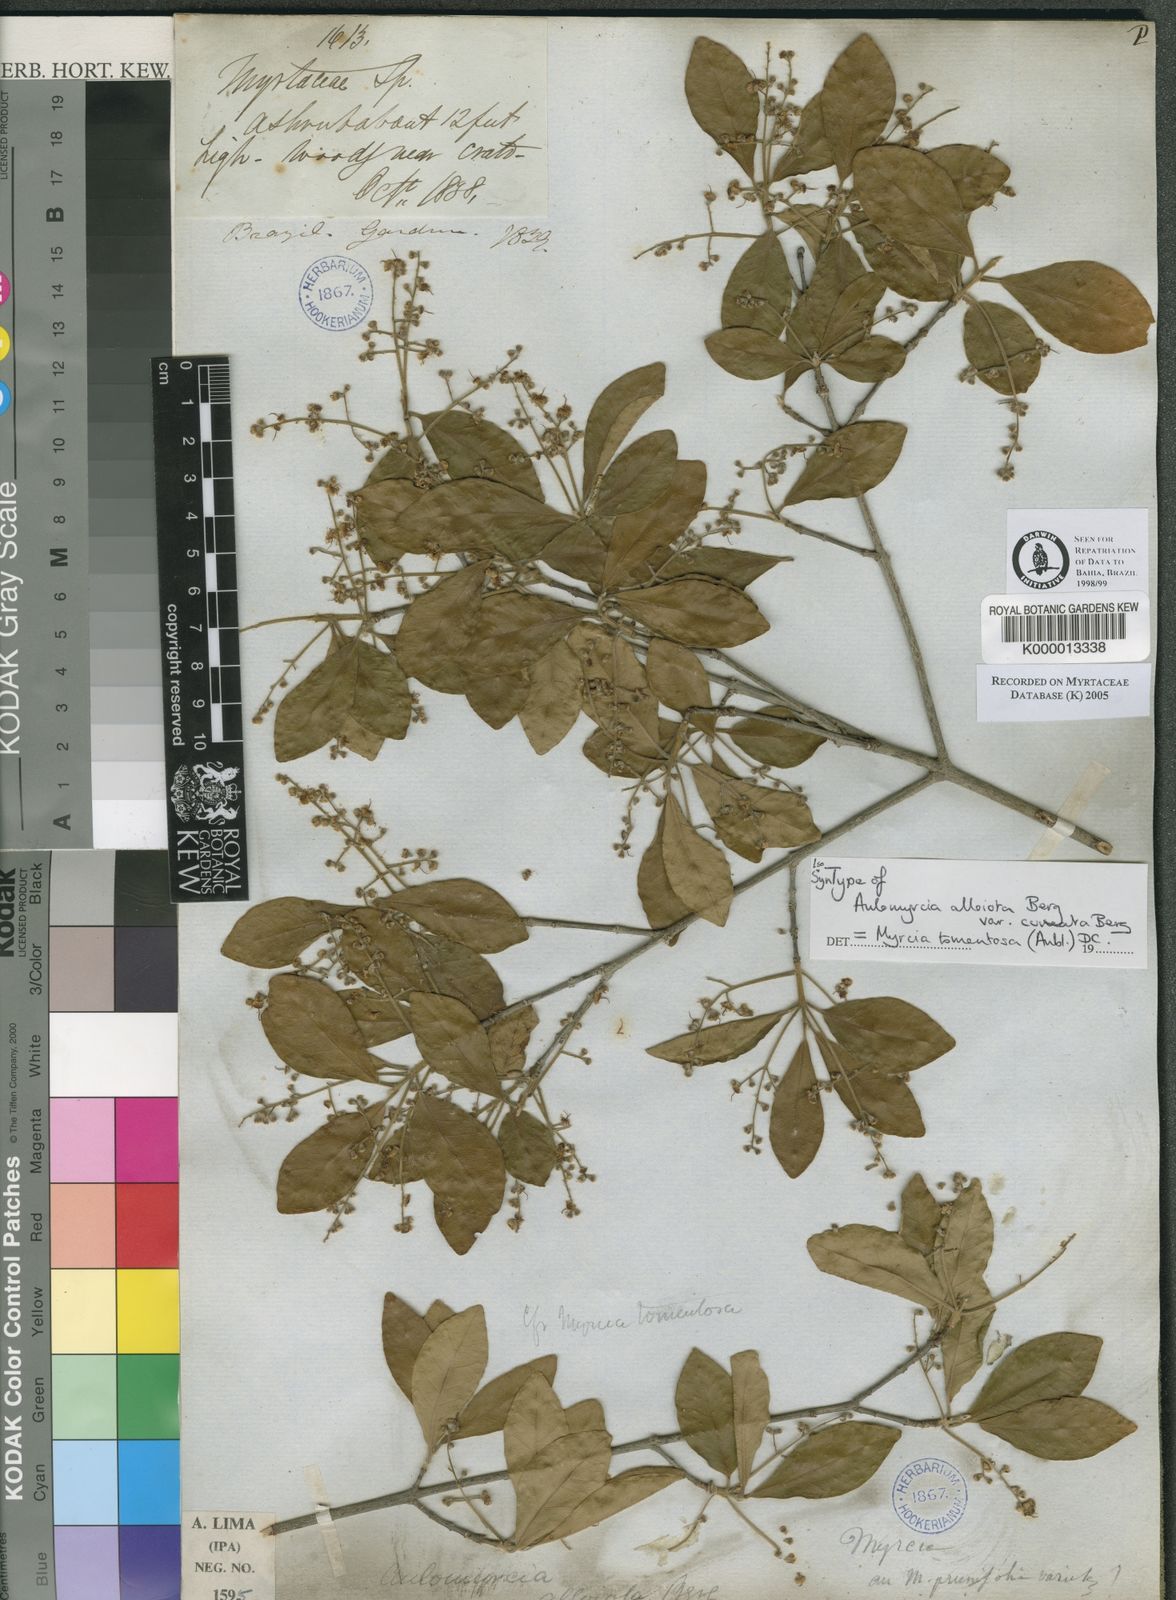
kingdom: Plantae
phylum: Tracheophyta
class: Magnoliopsida
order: Myrtales
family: Myrtaceae
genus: Myrcia
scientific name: Myrcia tomentosa
